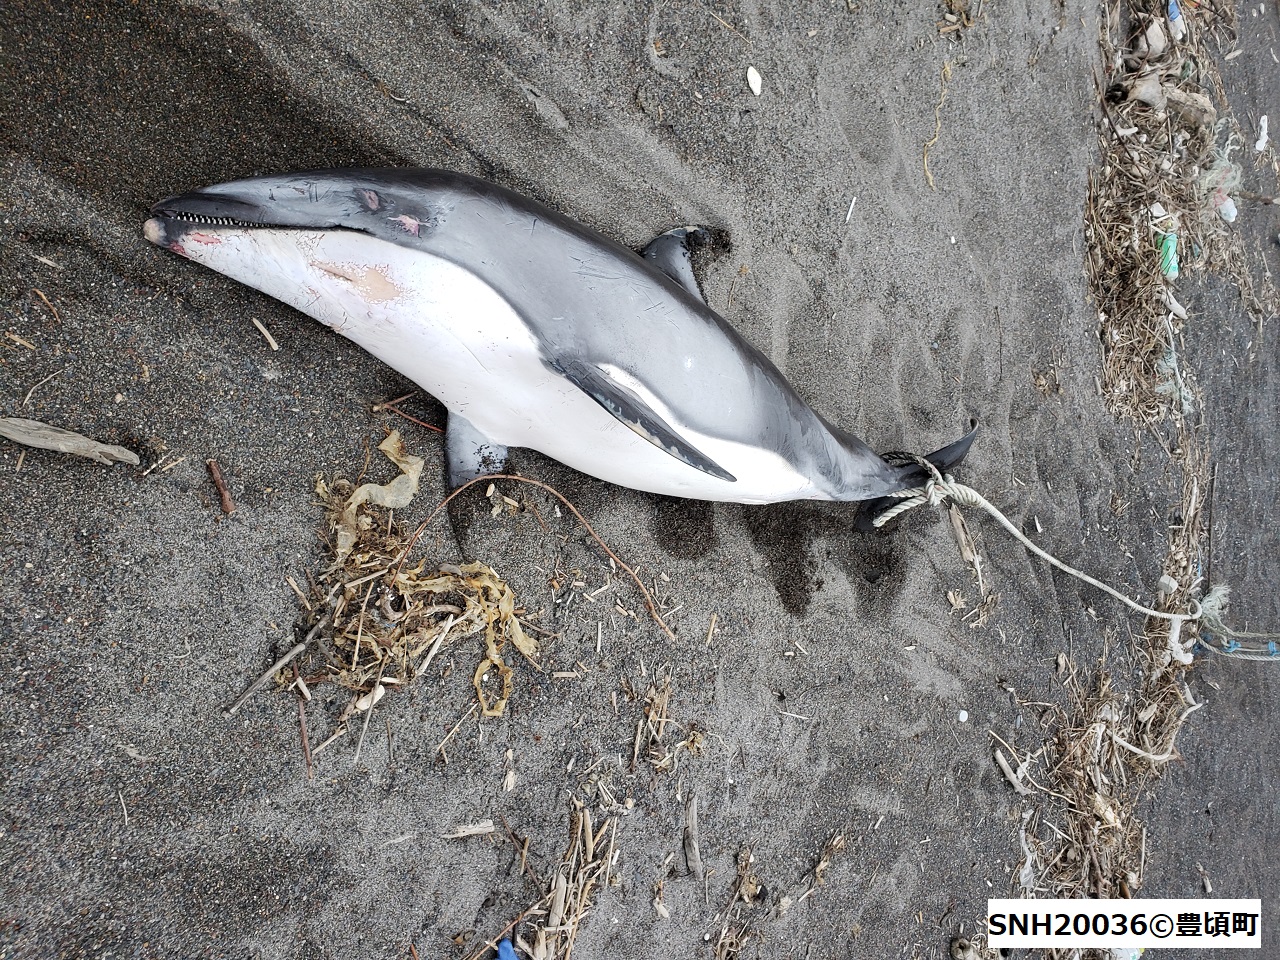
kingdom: Animalia
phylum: Chordata
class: Mammalia
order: Cetacea
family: Delphinidae
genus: Lagenorhynchus
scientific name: Lagenorhynchus obliquidens
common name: Pacific white-sided dolphin
